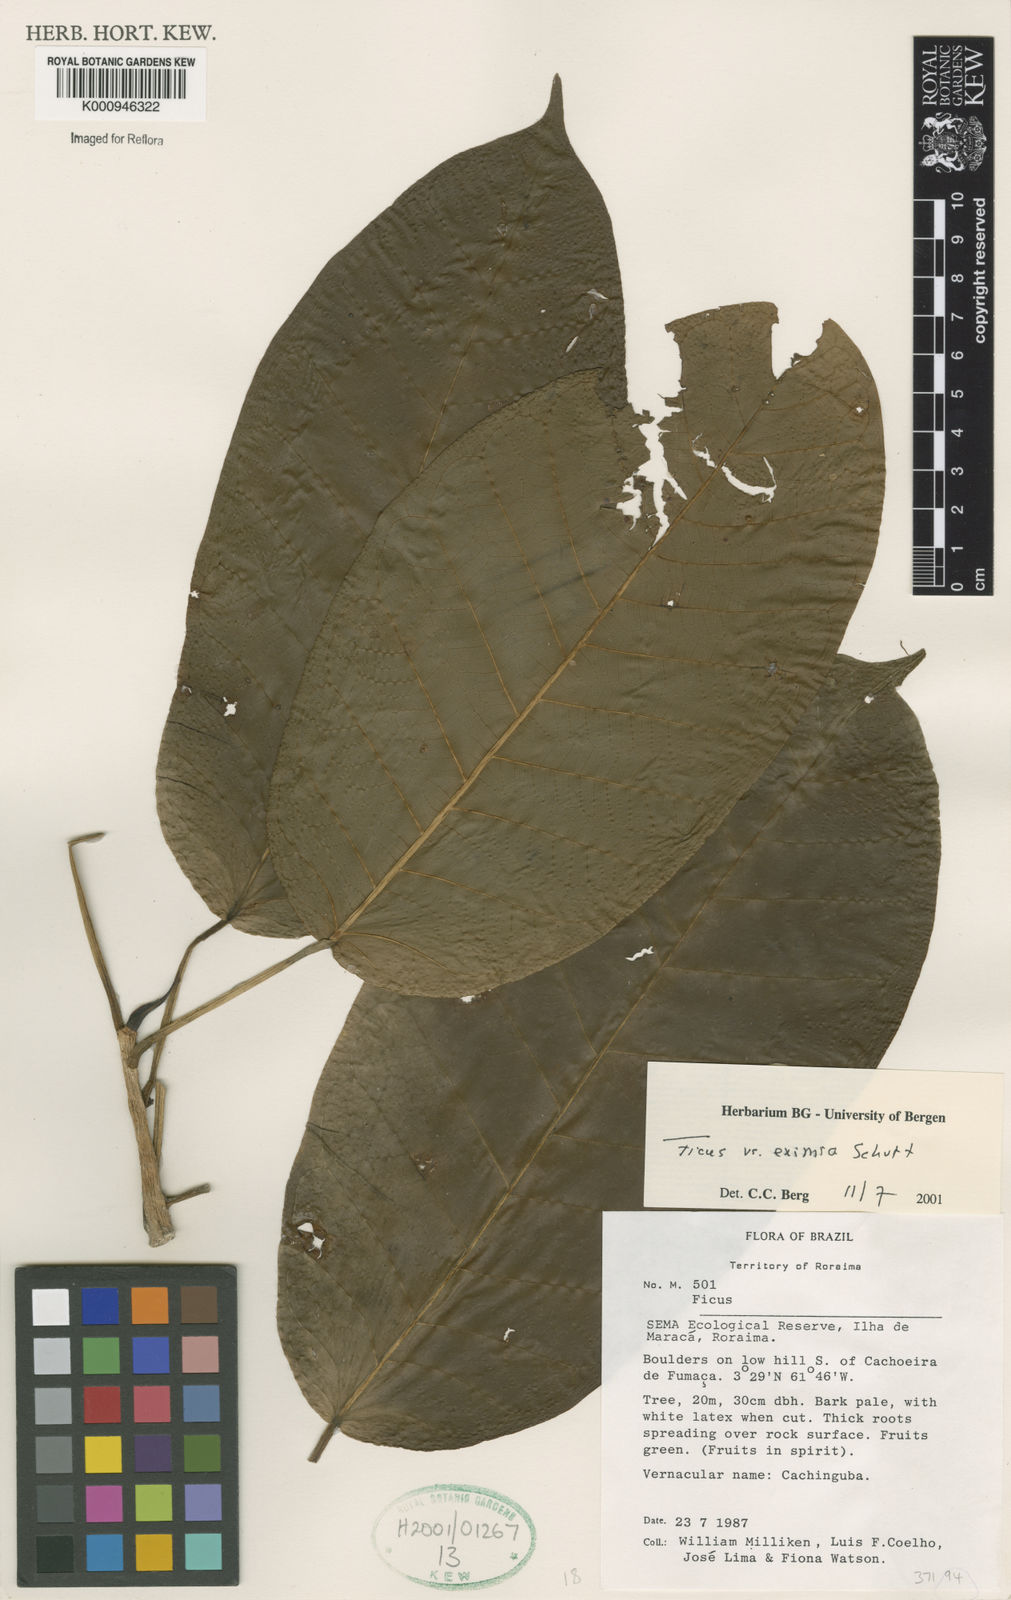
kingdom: Plantae
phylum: Tracheophyta
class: Magnoliopsida
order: Rosales
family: Moraceae
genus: Ficus
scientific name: Ficus eximia
